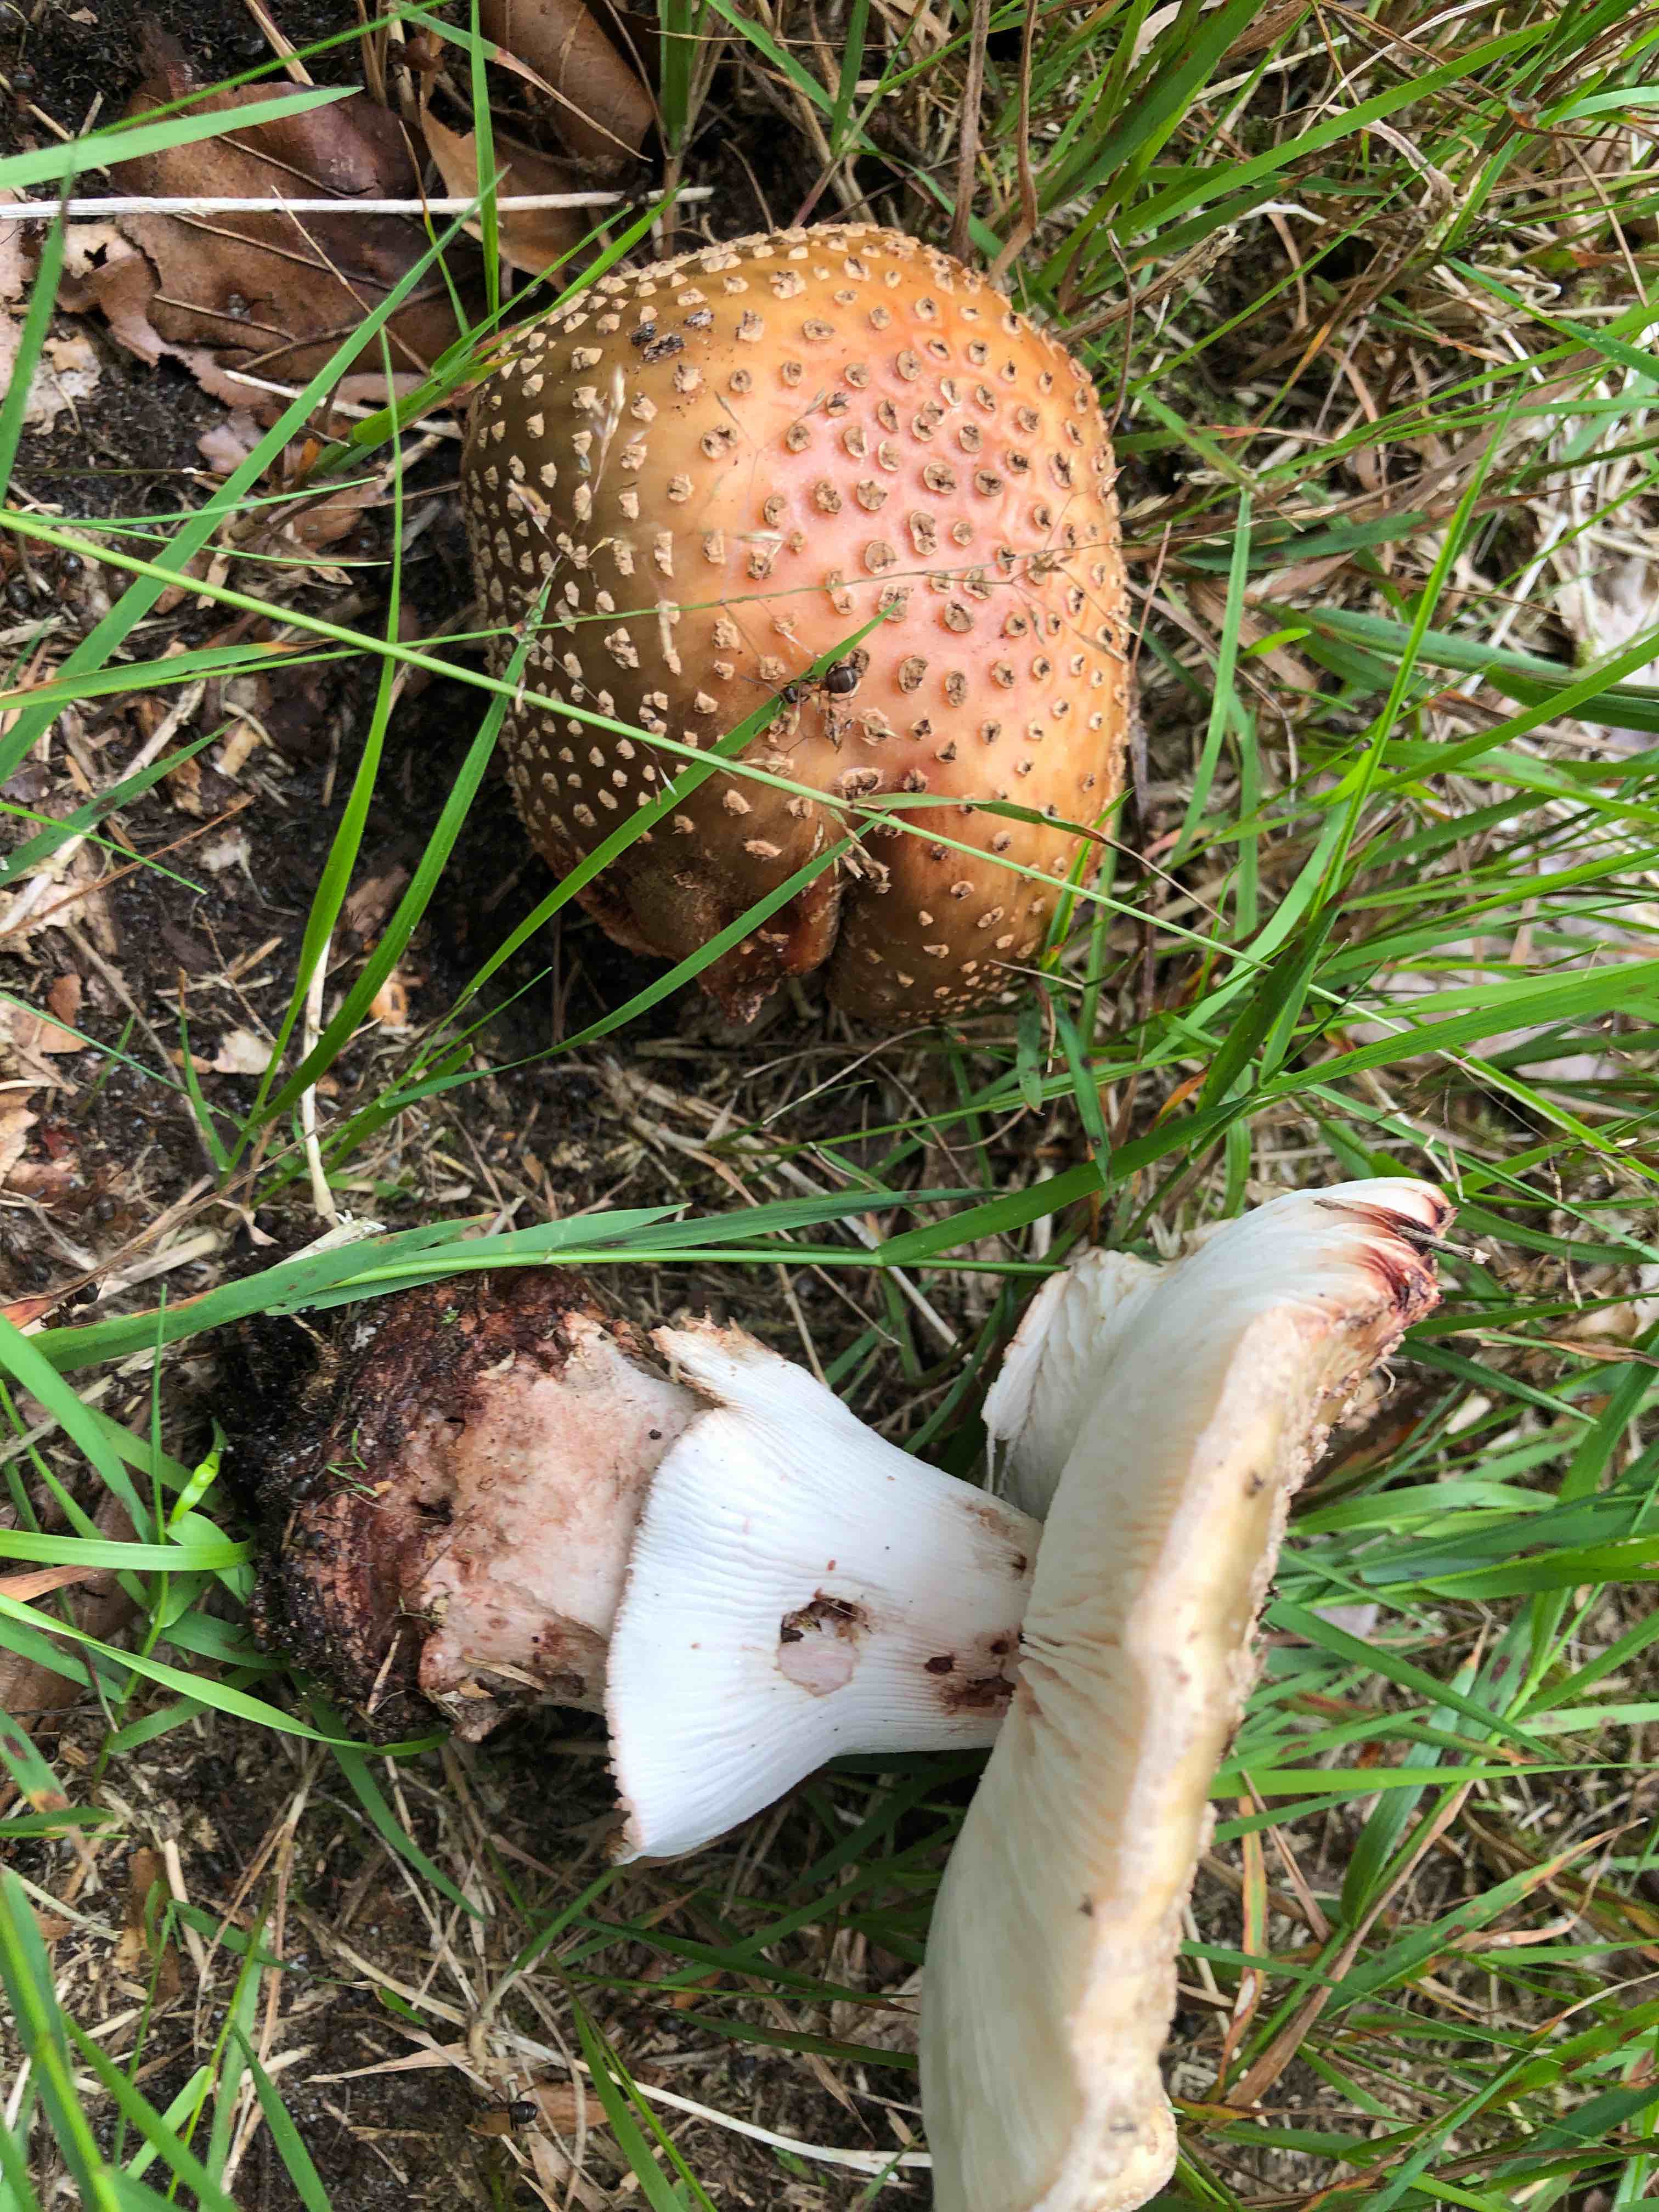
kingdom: Fungi
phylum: Basidiomycota
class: Agaricomycetes
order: Agaricales
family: Amanitaceae
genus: Amanita
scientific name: Amanita rubescens
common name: rødmende fluesvamp
